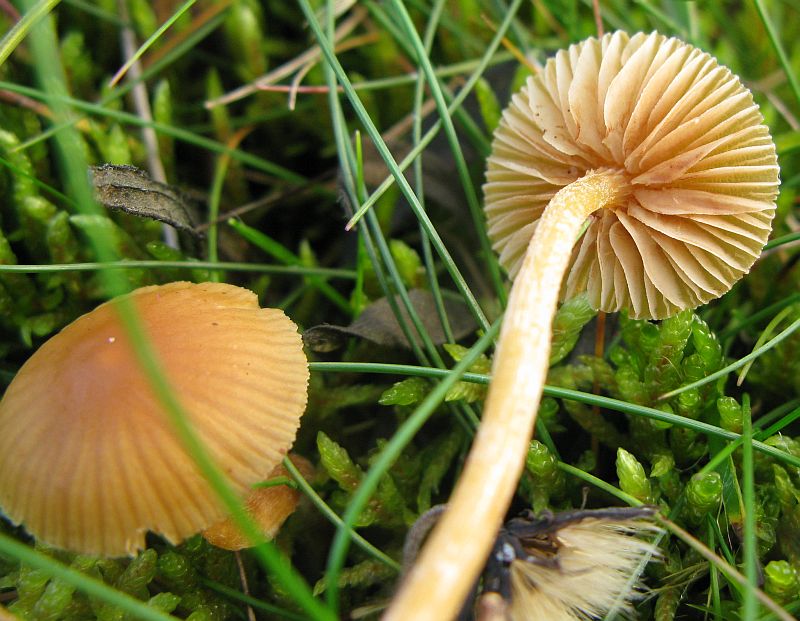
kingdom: Fungi
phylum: Basidiomycota
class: Agaricomycetes
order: Agaricales
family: Hymenogastraceae
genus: Galerina
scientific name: Galerina pumila
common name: honninggul hjelmhat
